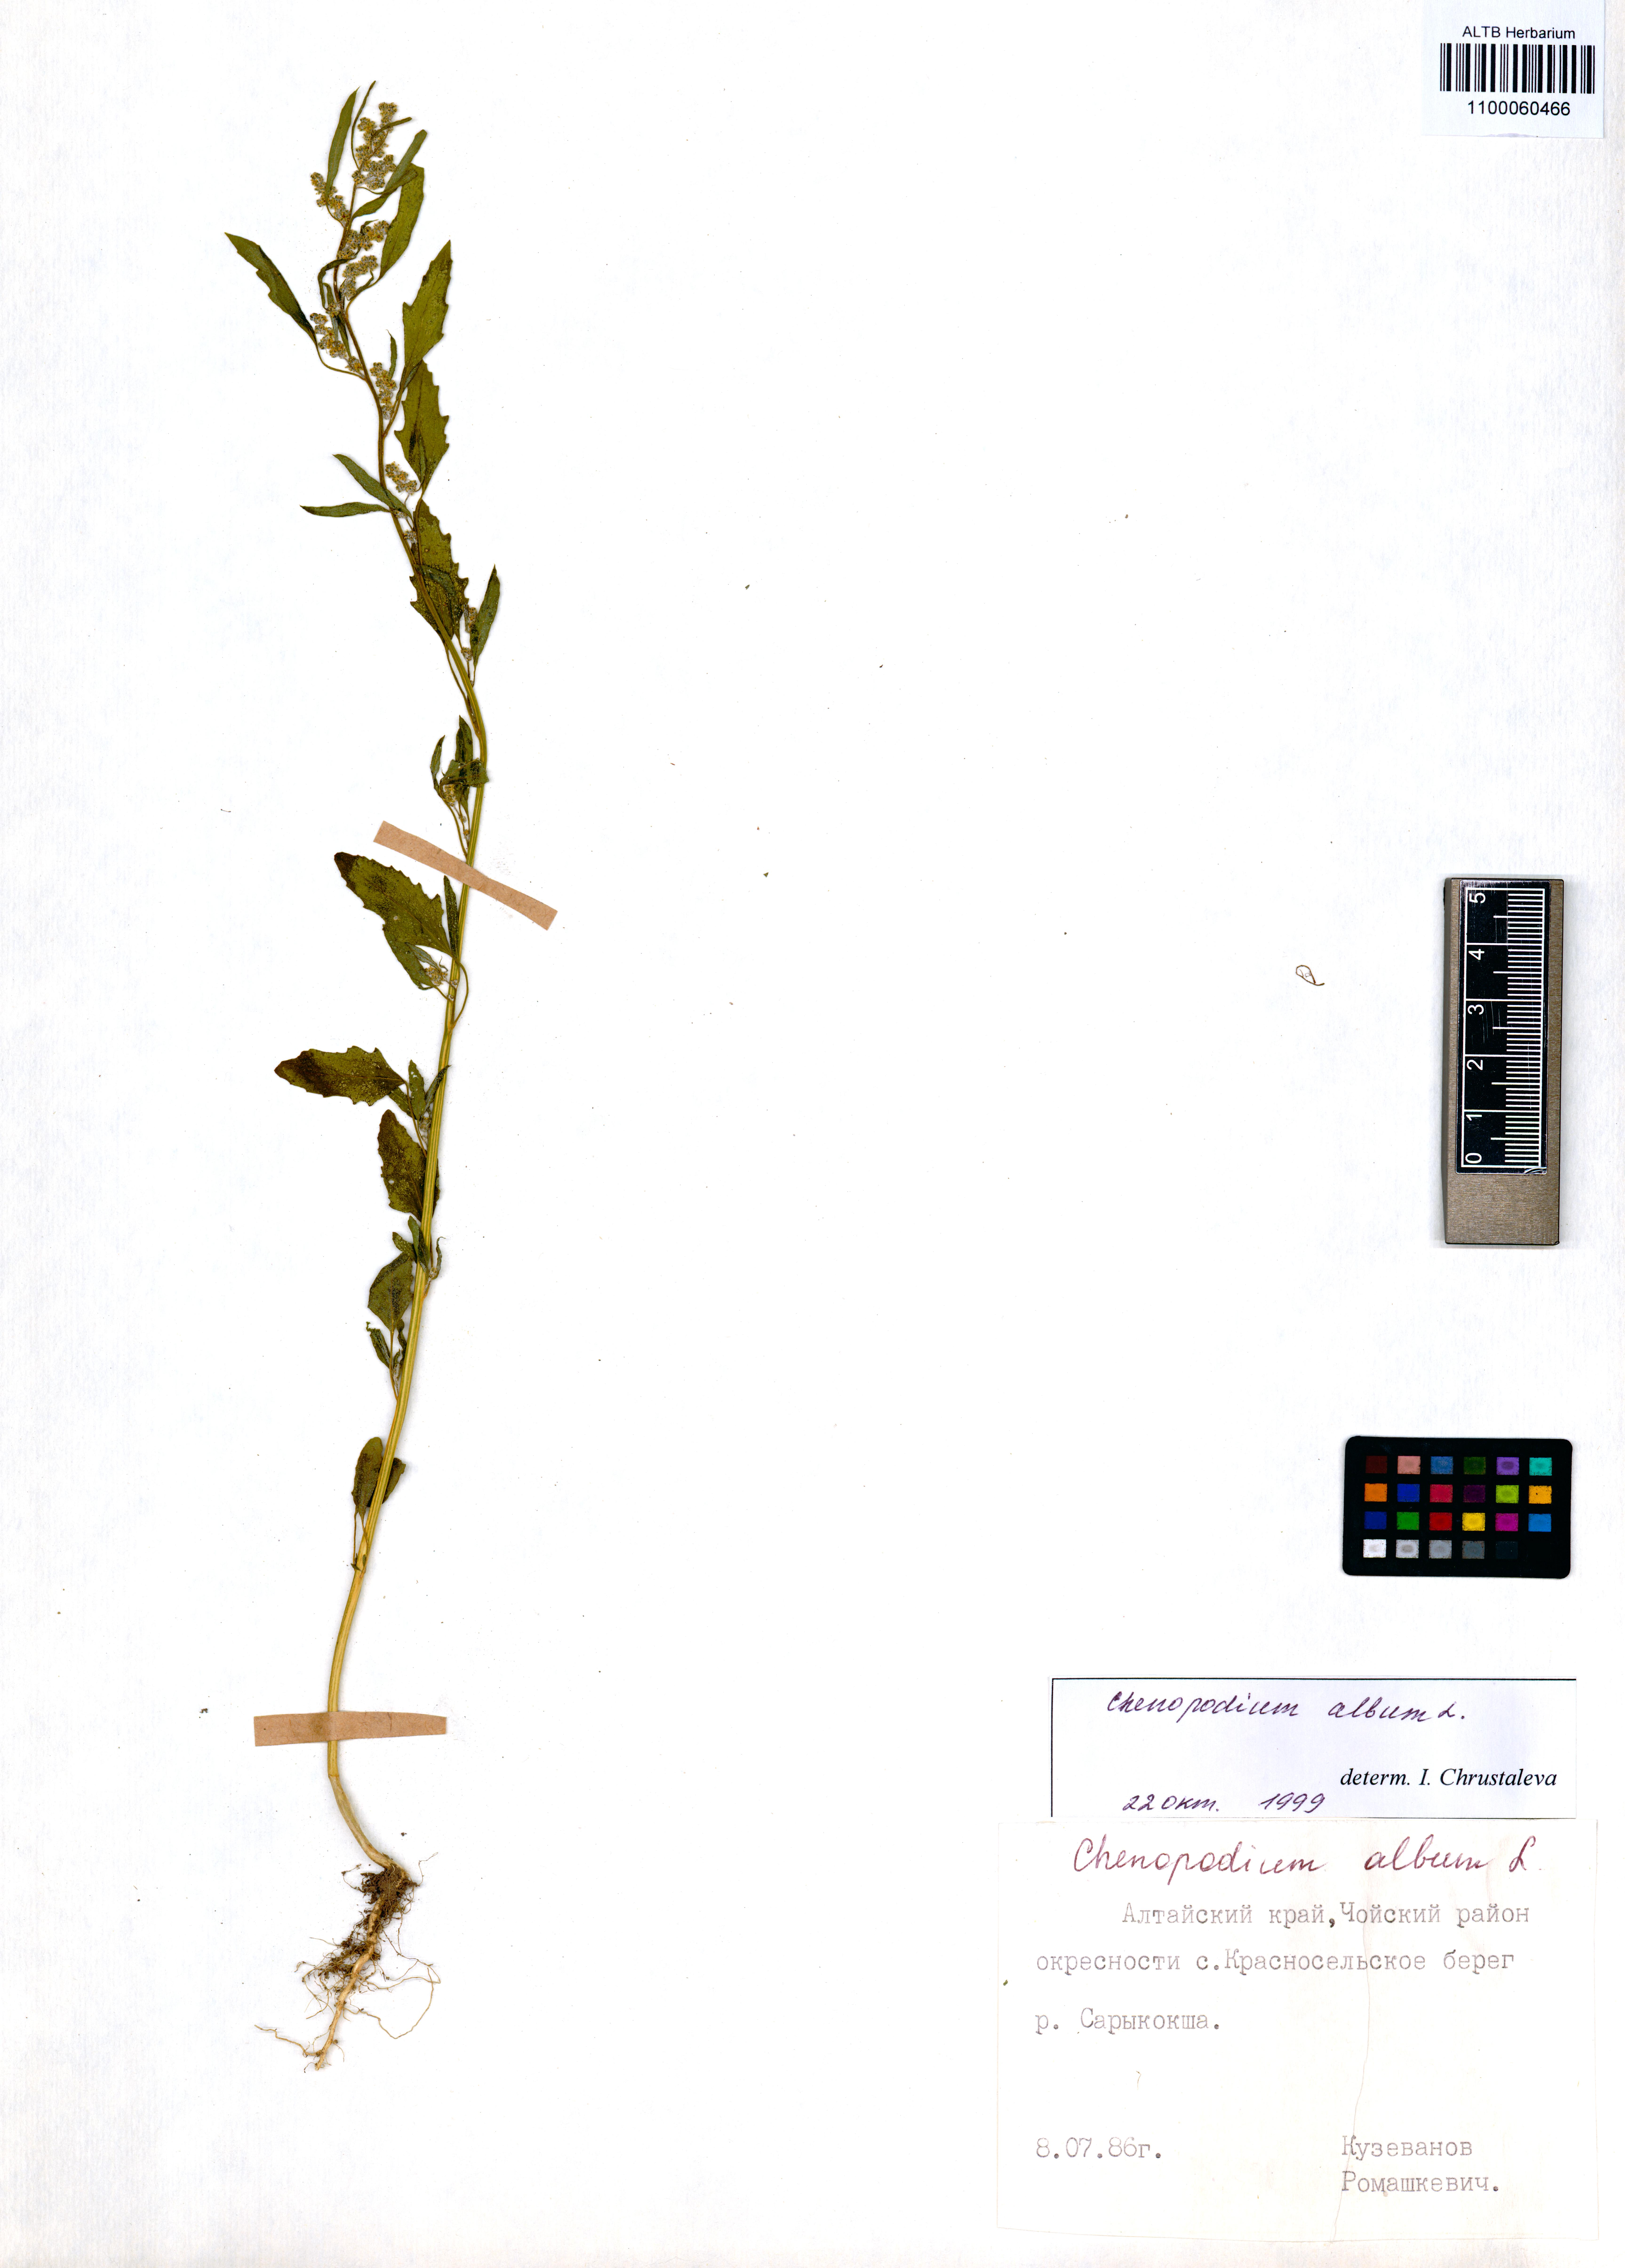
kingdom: Plantae
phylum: Tracheophyta
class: Magnoliopsida
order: Caryophyllales
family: Amaranthaceae
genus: Chenopodium
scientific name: Chenopodium album
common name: Fat-hen
